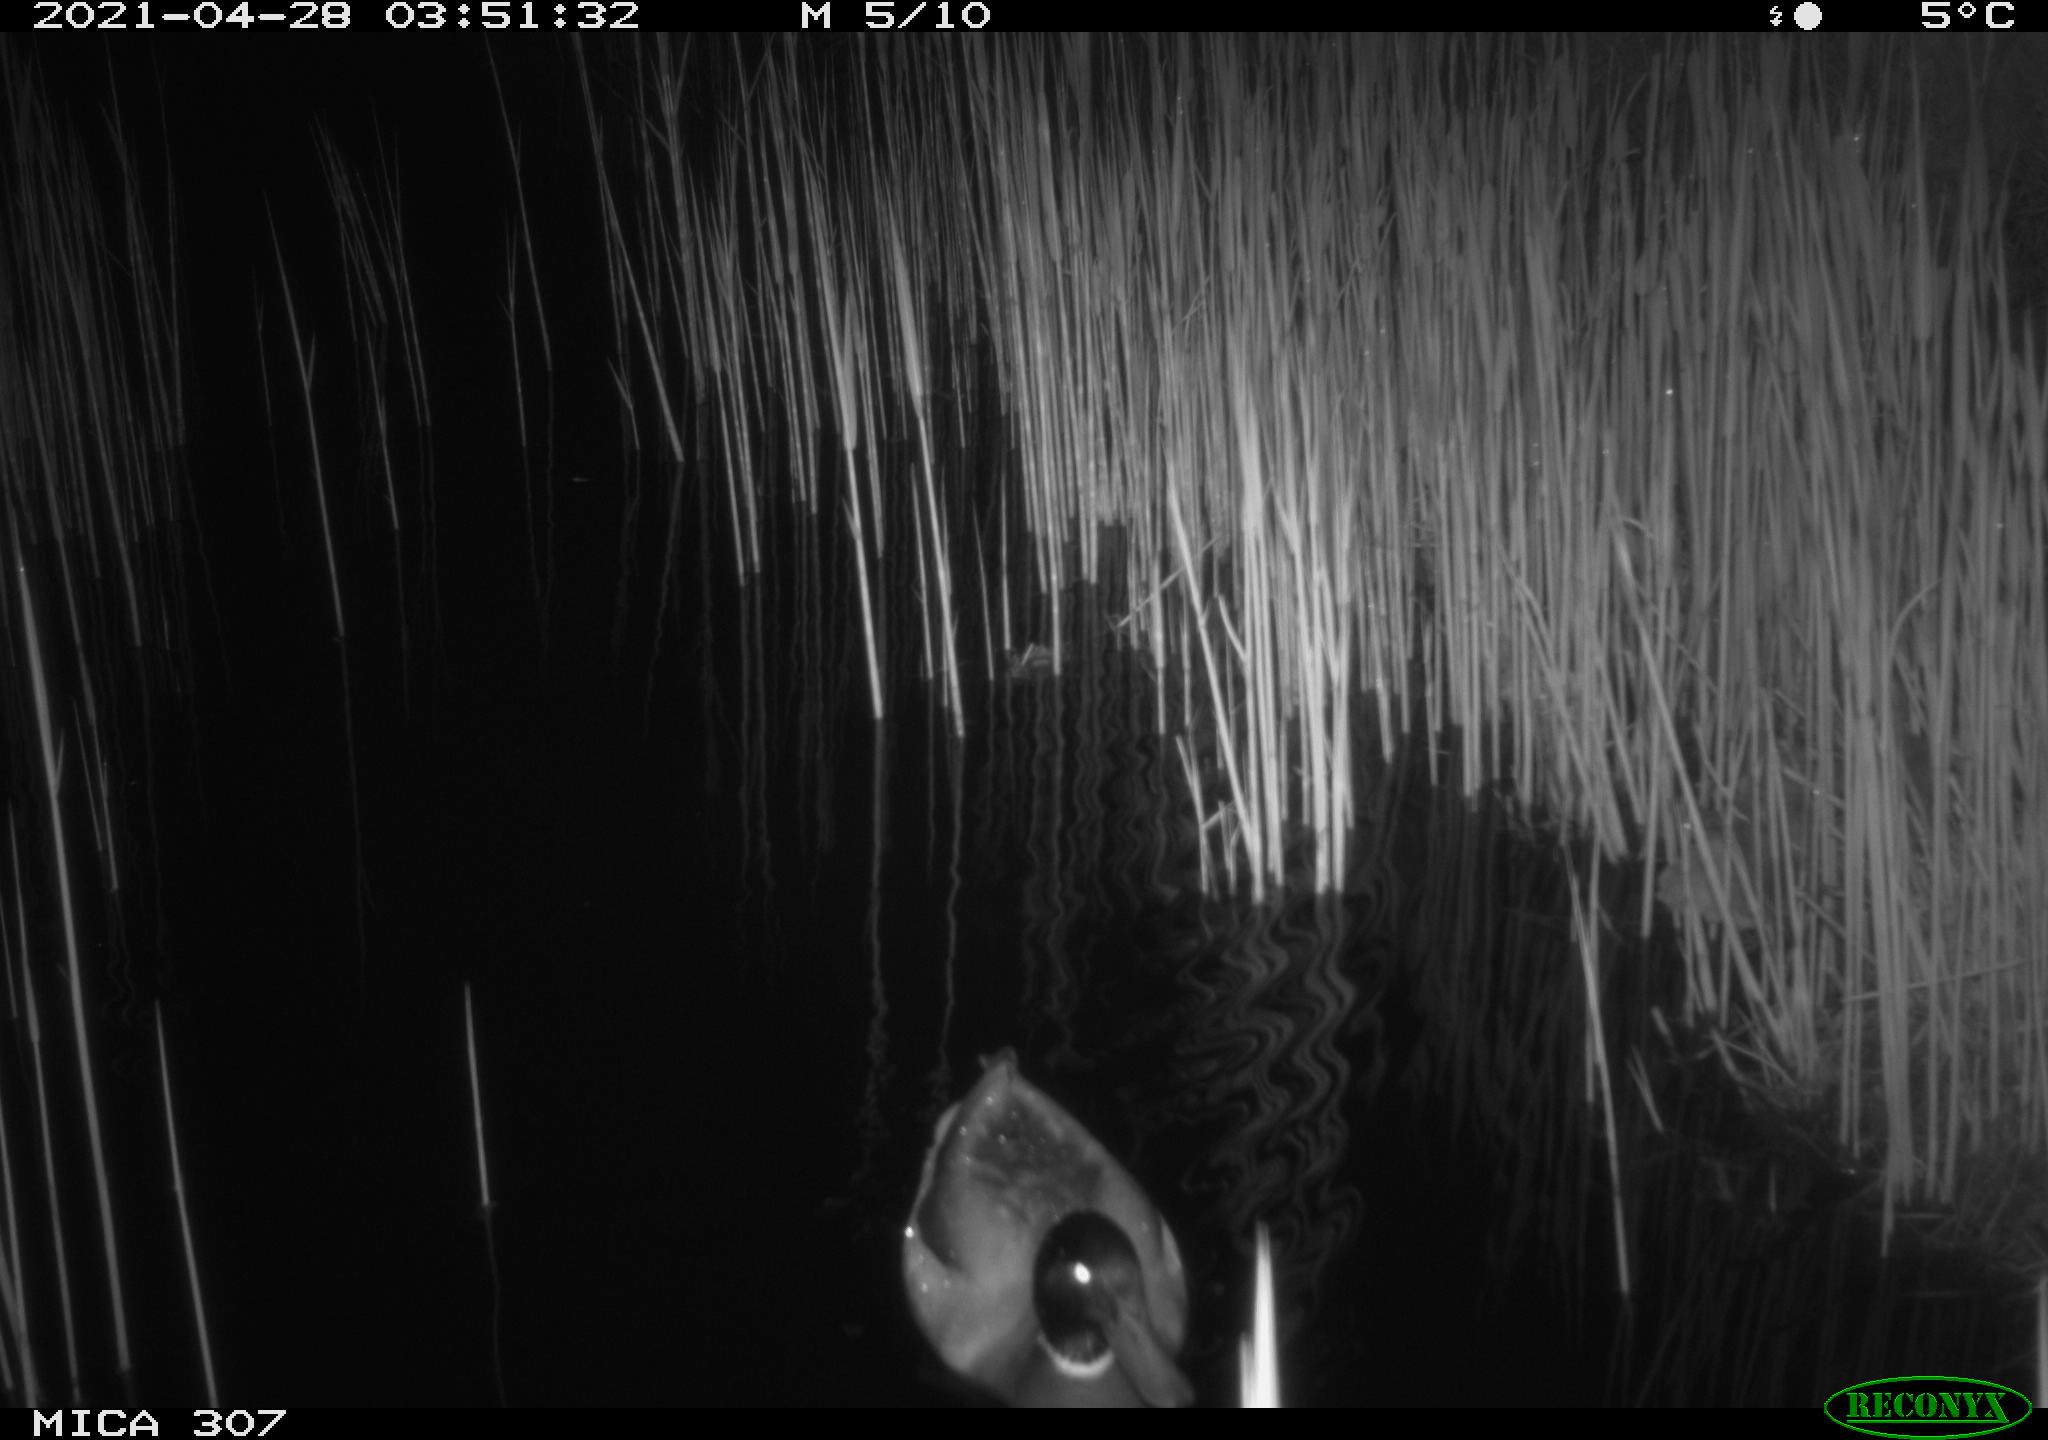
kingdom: Animalia
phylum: Chordata
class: Aves
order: Gruiformes
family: Rallidae
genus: Gallinula
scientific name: Gallinula chloropus
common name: Common moorhen
